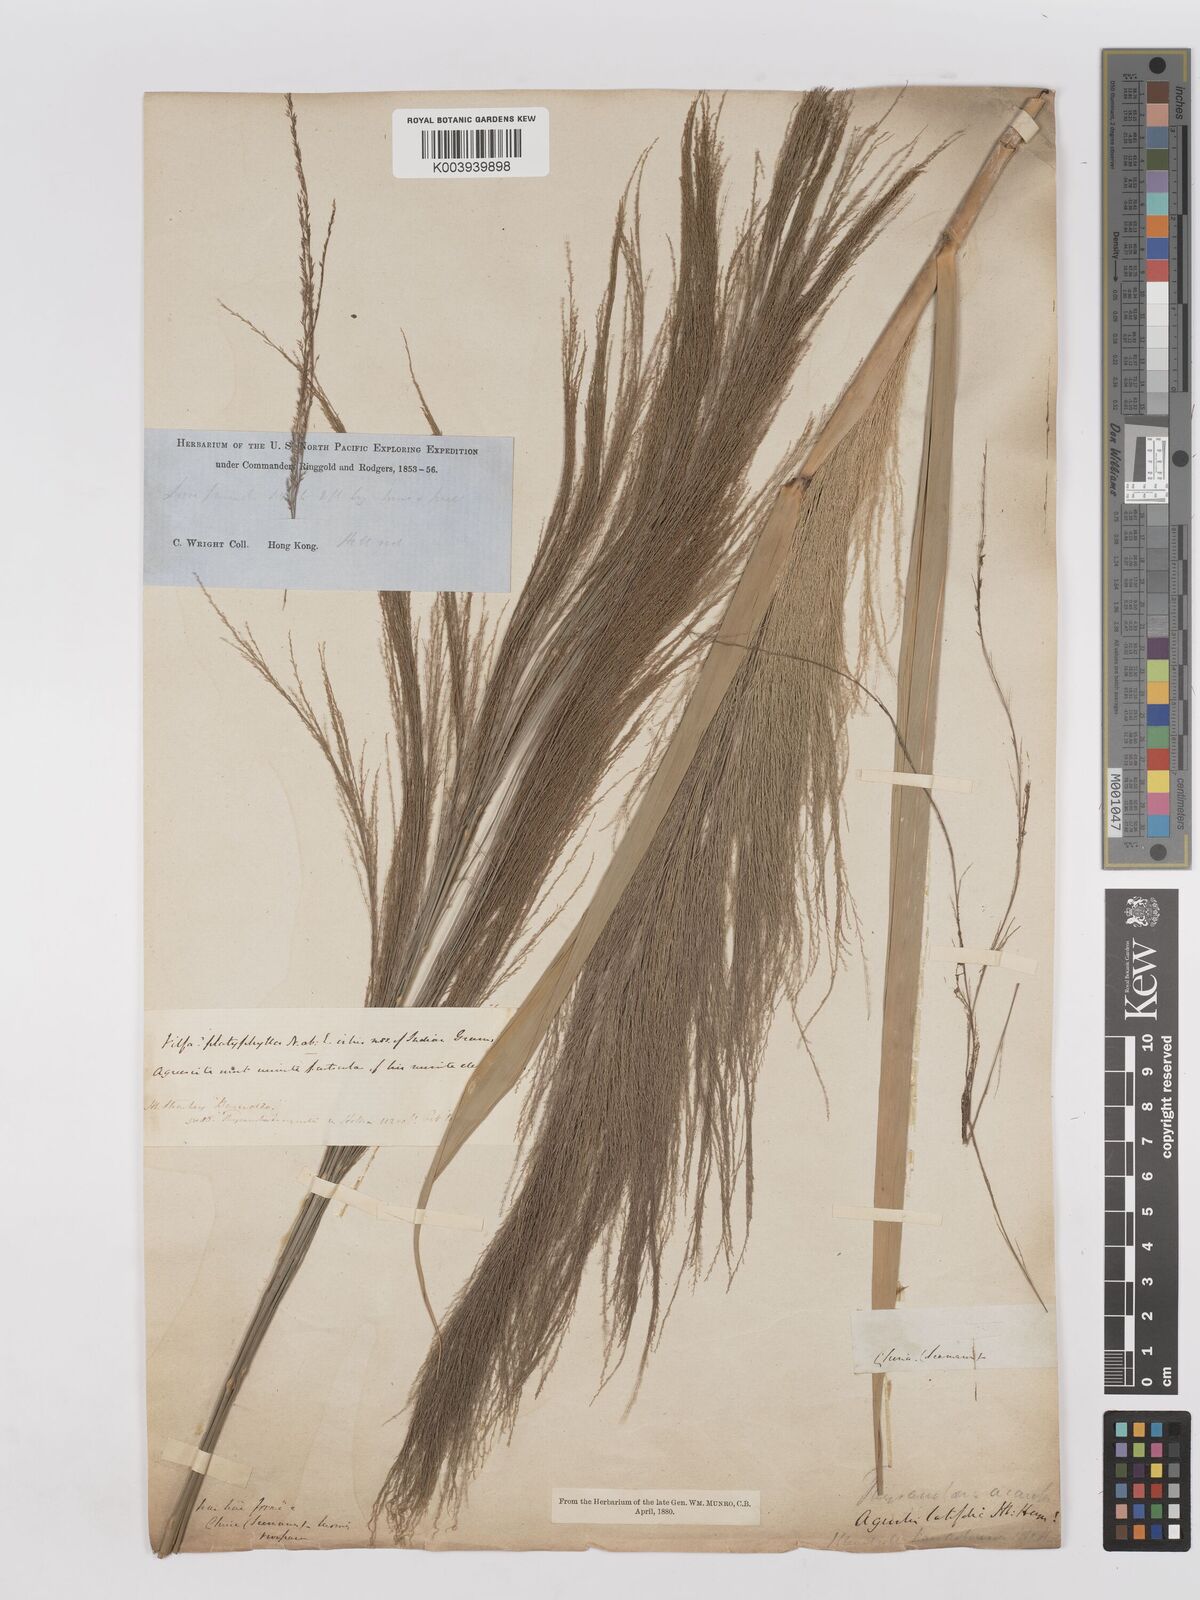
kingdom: Plantae
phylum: Tracheophyta
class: Liliopsida
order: Poales
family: Poaceae
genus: Thysanolaena
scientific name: Thysanolaena latifolia
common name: Tiger grass
